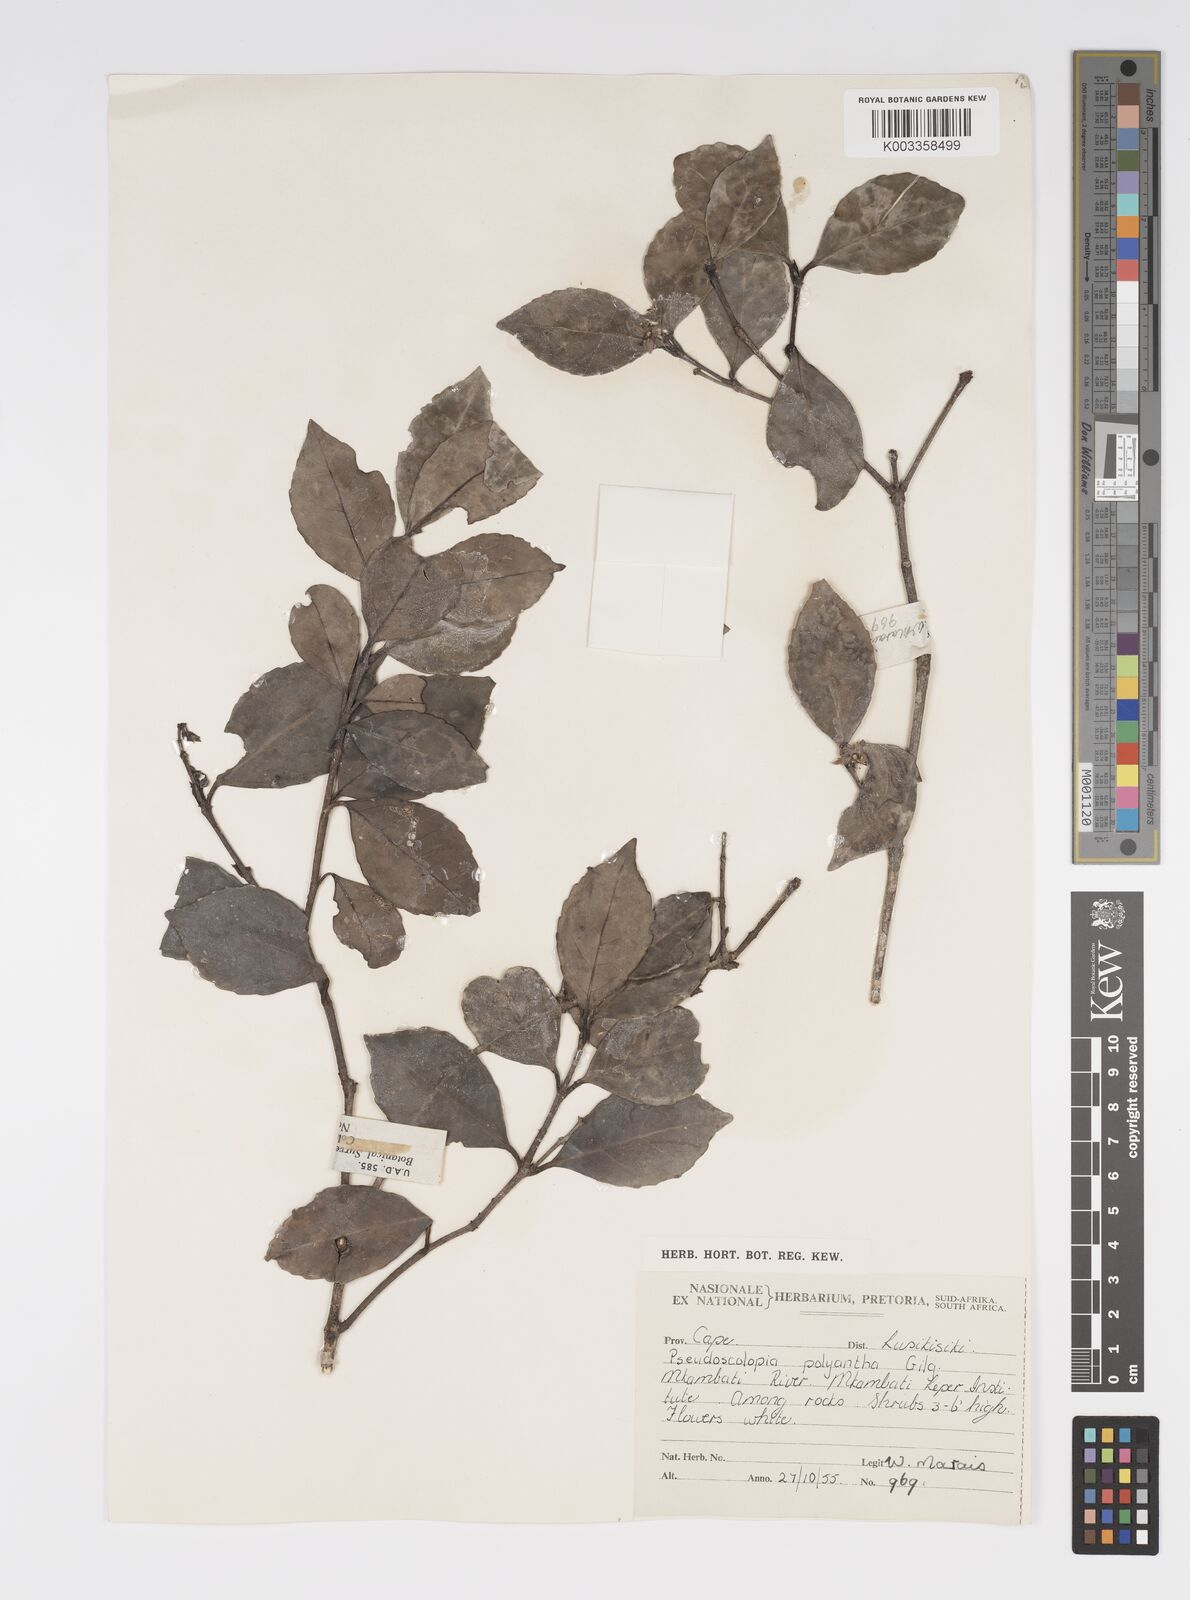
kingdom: Plantae
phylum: Tracheophyta
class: Magnoliopsida
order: Malpighiales
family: Salicaceae
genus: Pseudoscolopia
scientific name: Pseudoscolopia polyantha
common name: Sandstone red-stem
